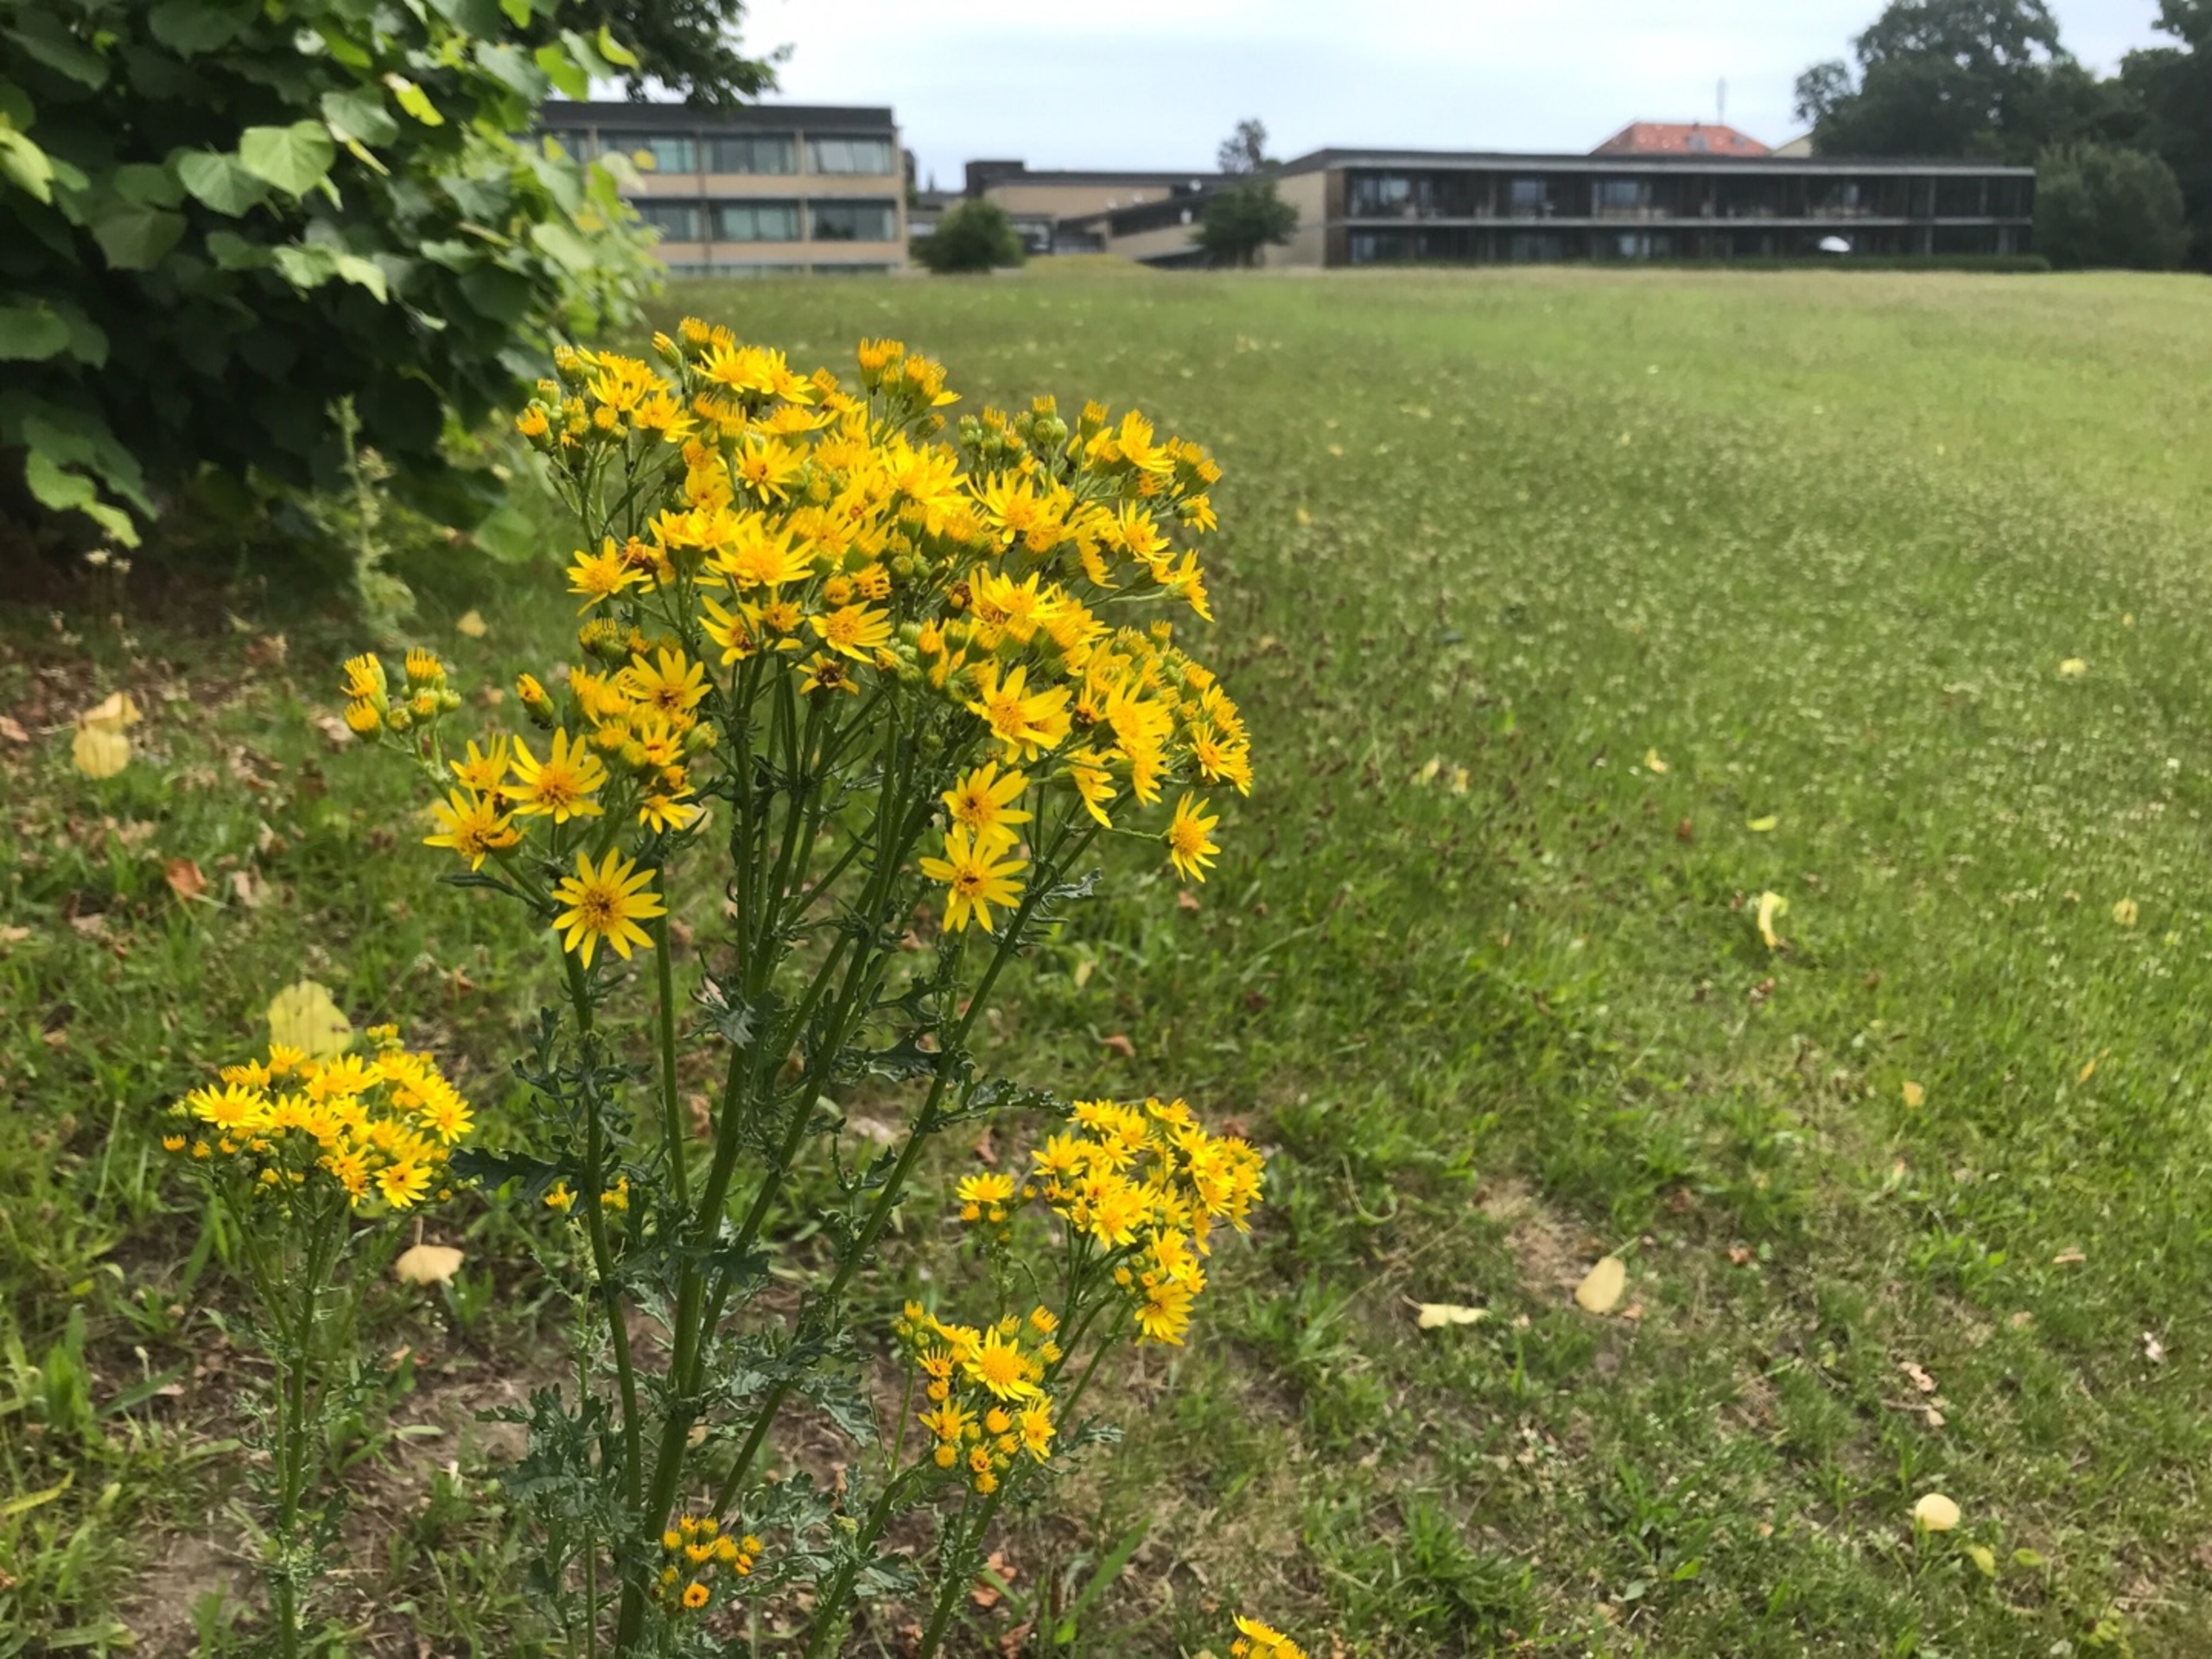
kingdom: Plantae
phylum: Tracheophyta
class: Magnoliopsida
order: Asterales
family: Asteraceae
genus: Jacobaea
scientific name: Jacobaea vulgaris
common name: Eng-brandbæger
